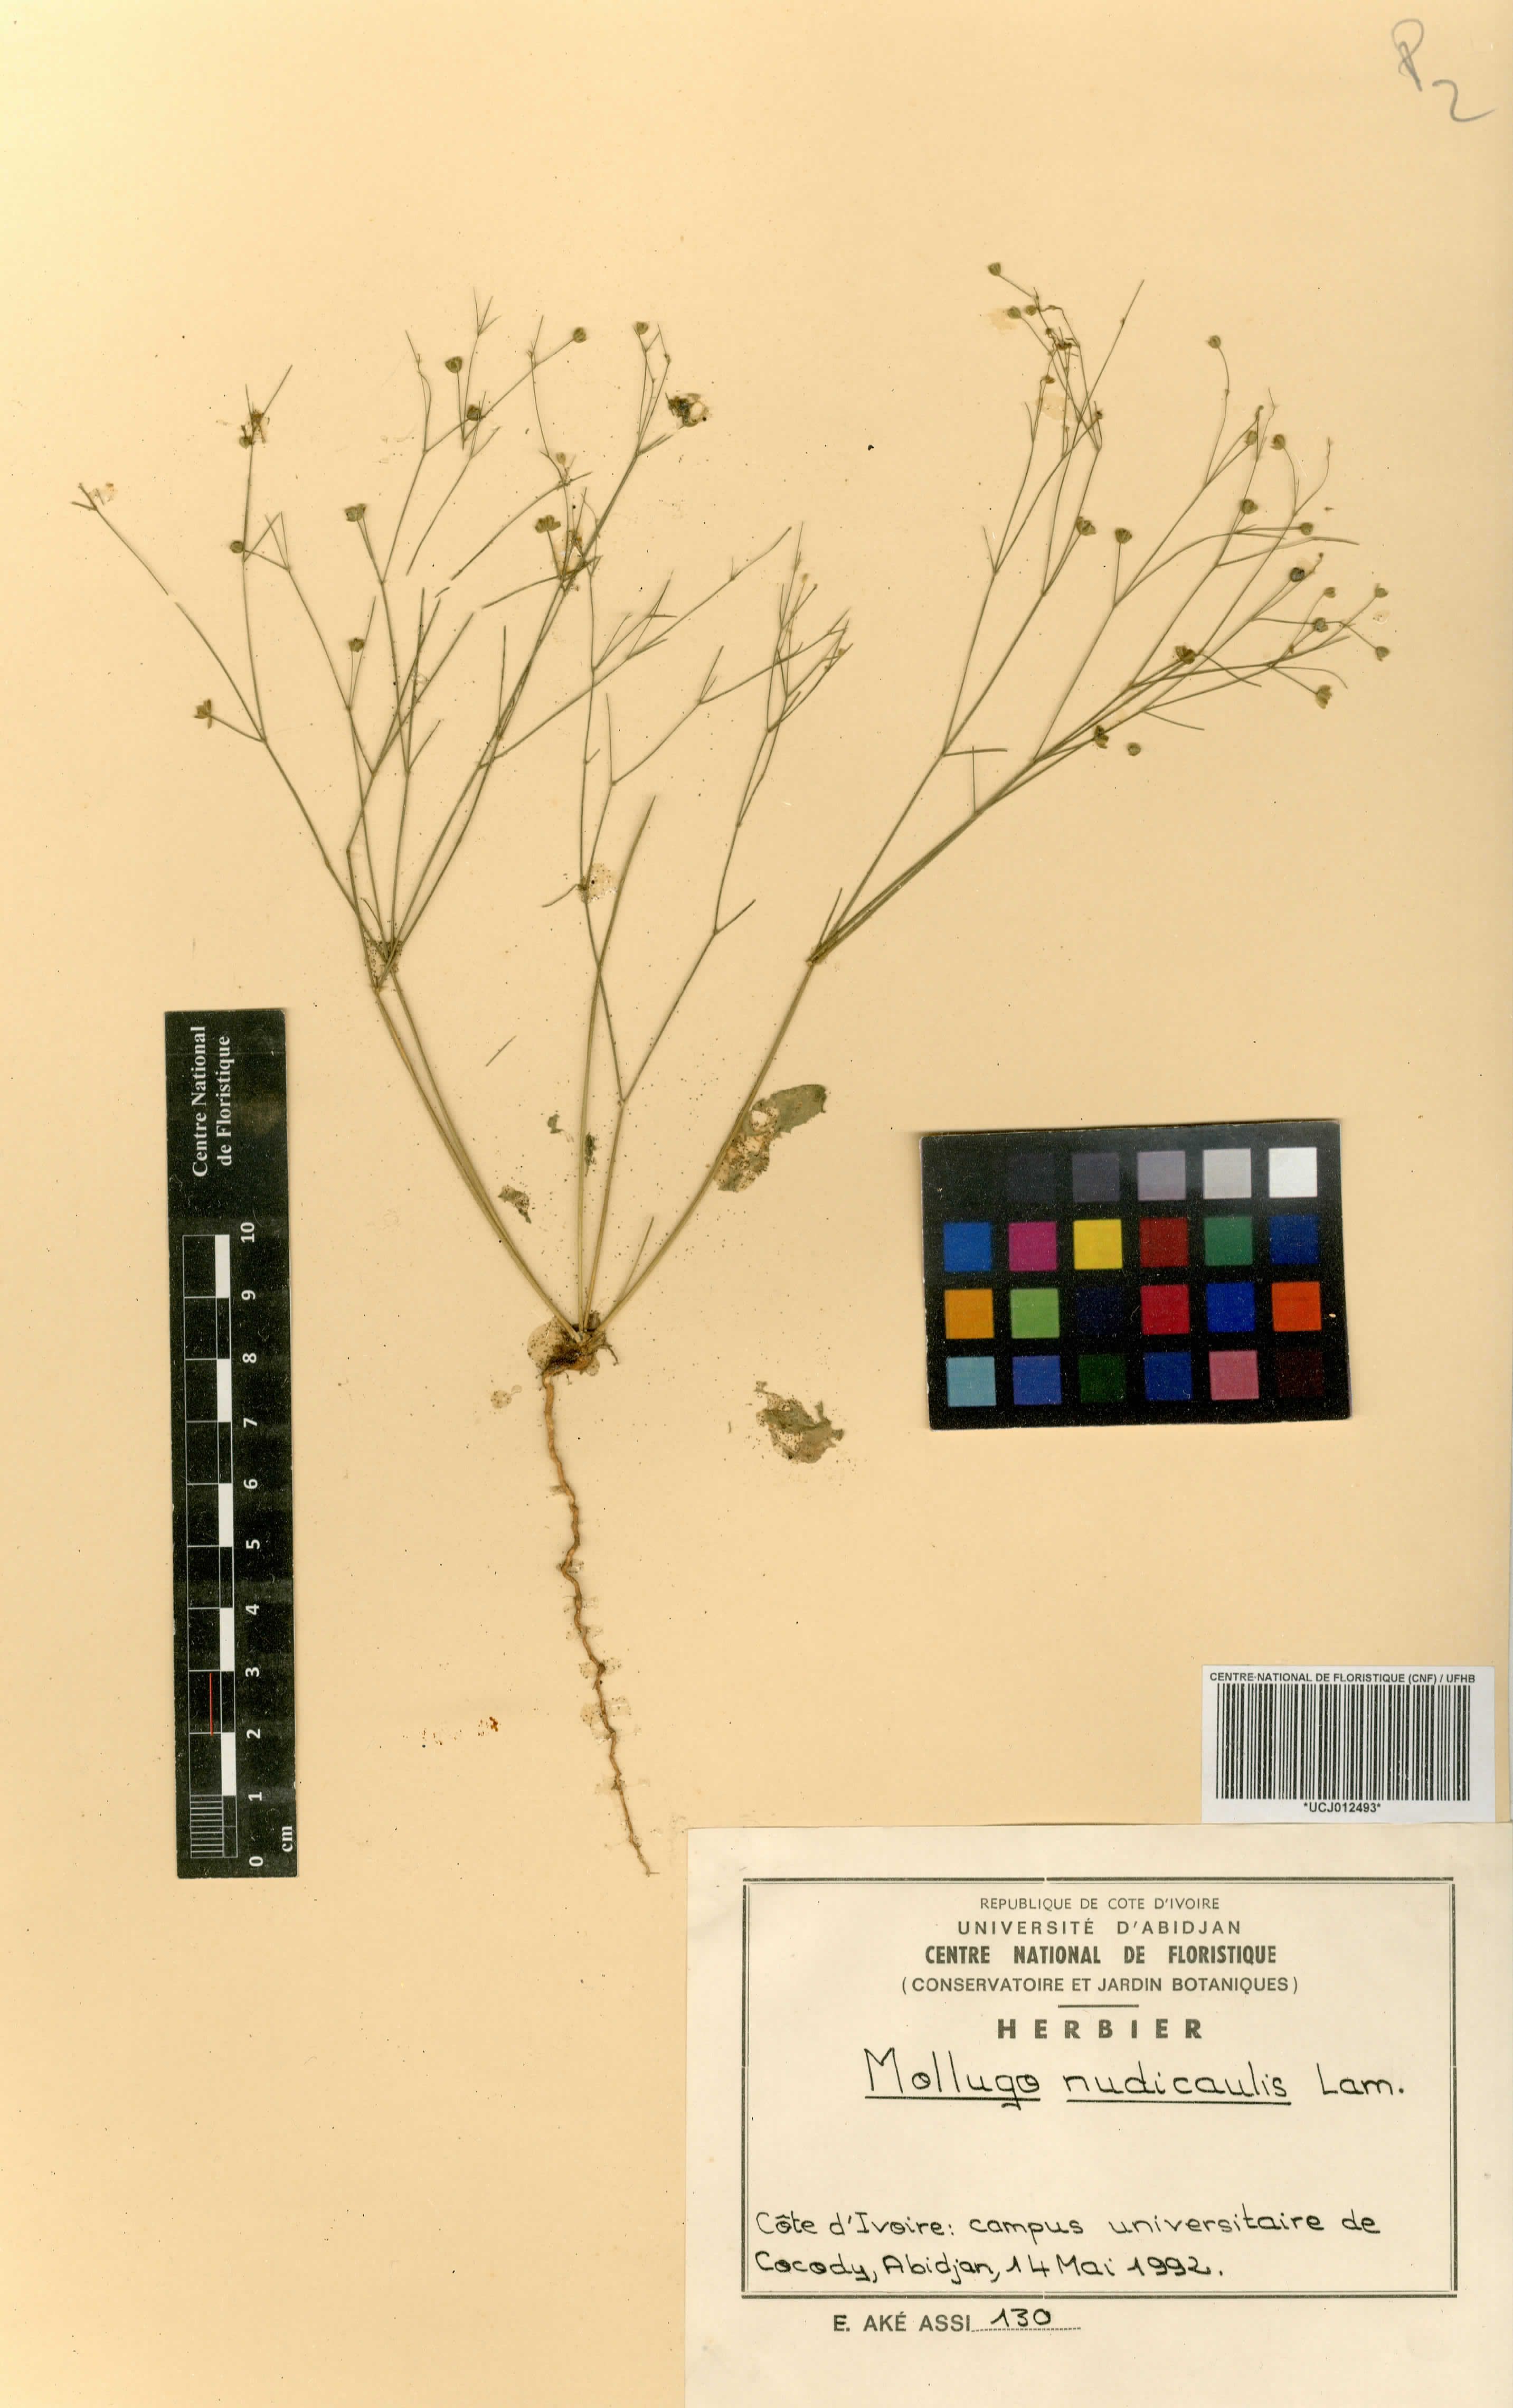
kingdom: Plantae
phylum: Tracheophyta
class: Magnoliopsida
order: Caryophyllales
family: Molluginaceae
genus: Paramollugo
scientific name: Paramollugo nudicaulis
